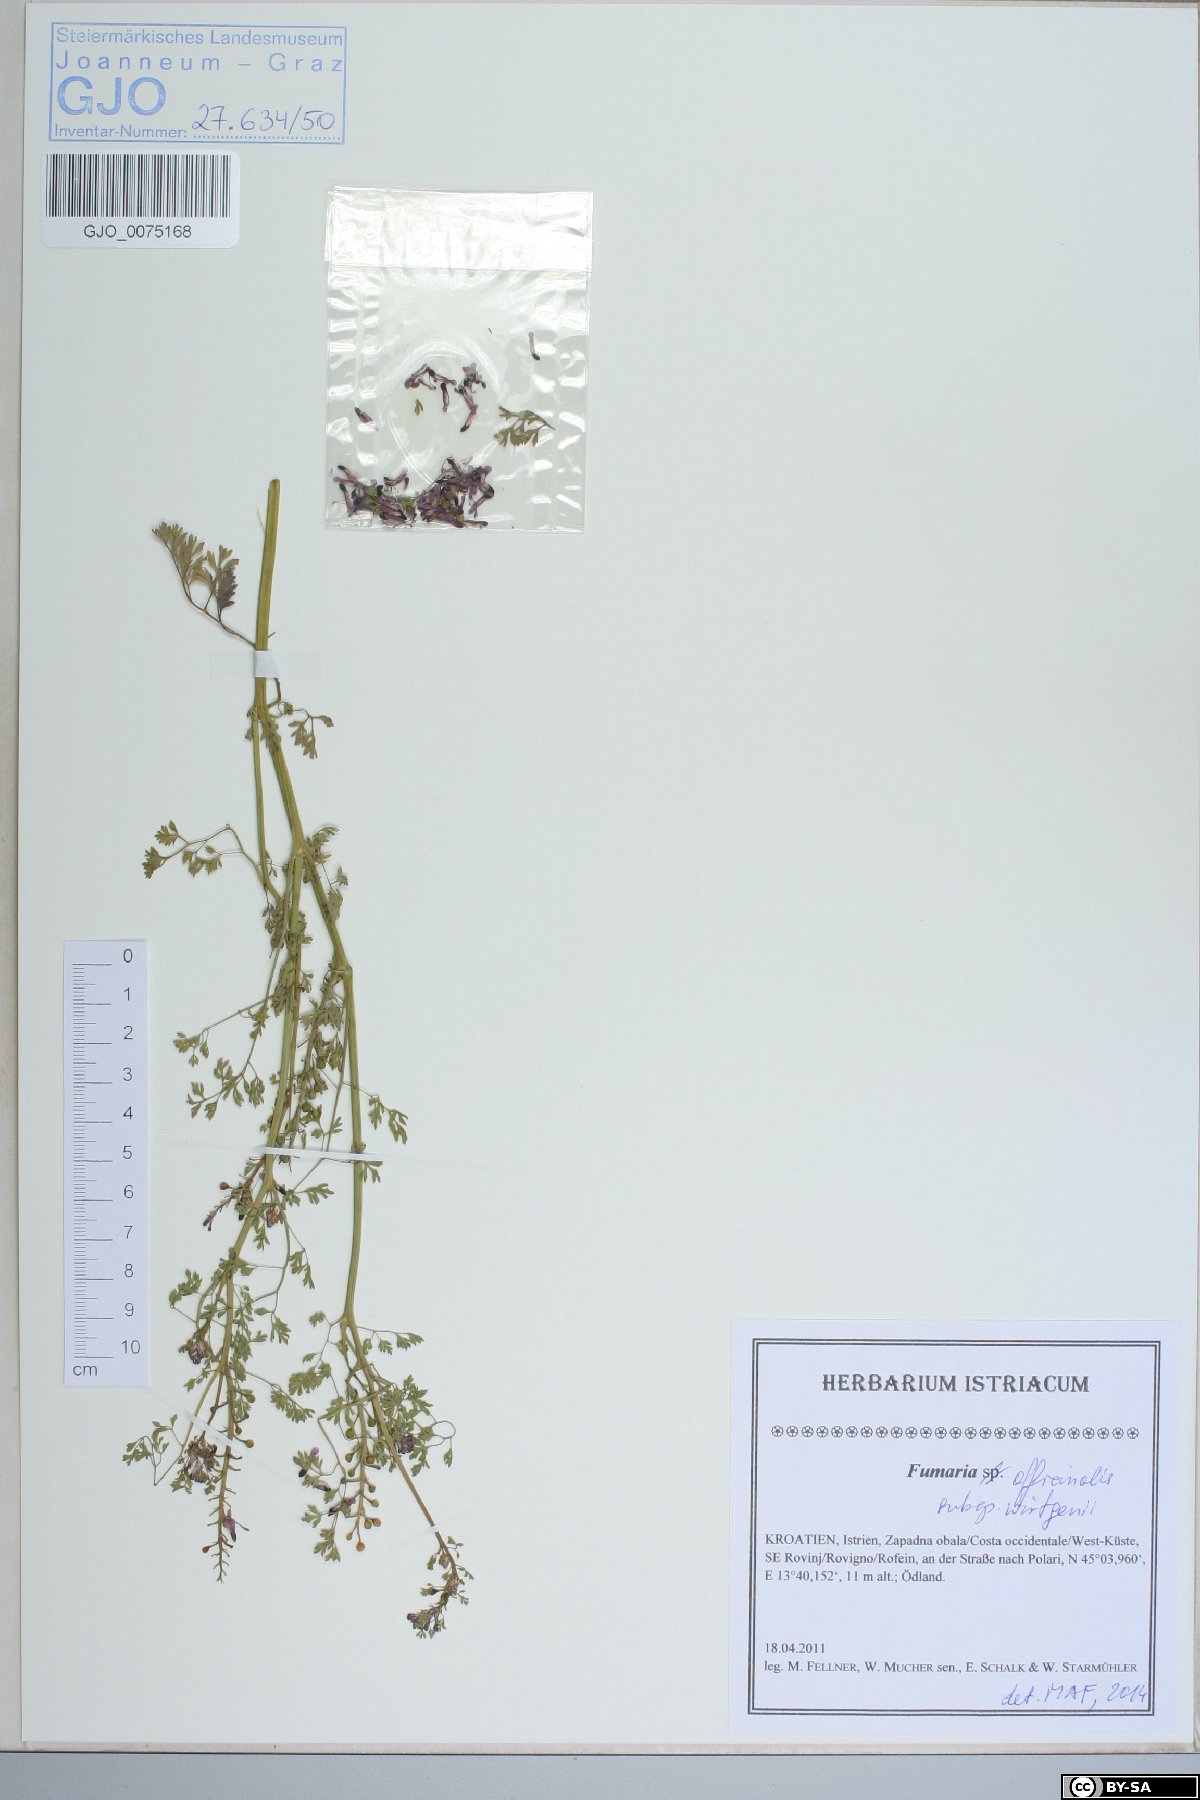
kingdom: Plantae
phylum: Tracheophyta
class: Magnoliopsida
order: Ranunculales
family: Papaveraceae
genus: Fumaria
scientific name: Fumaria wirtgenii
